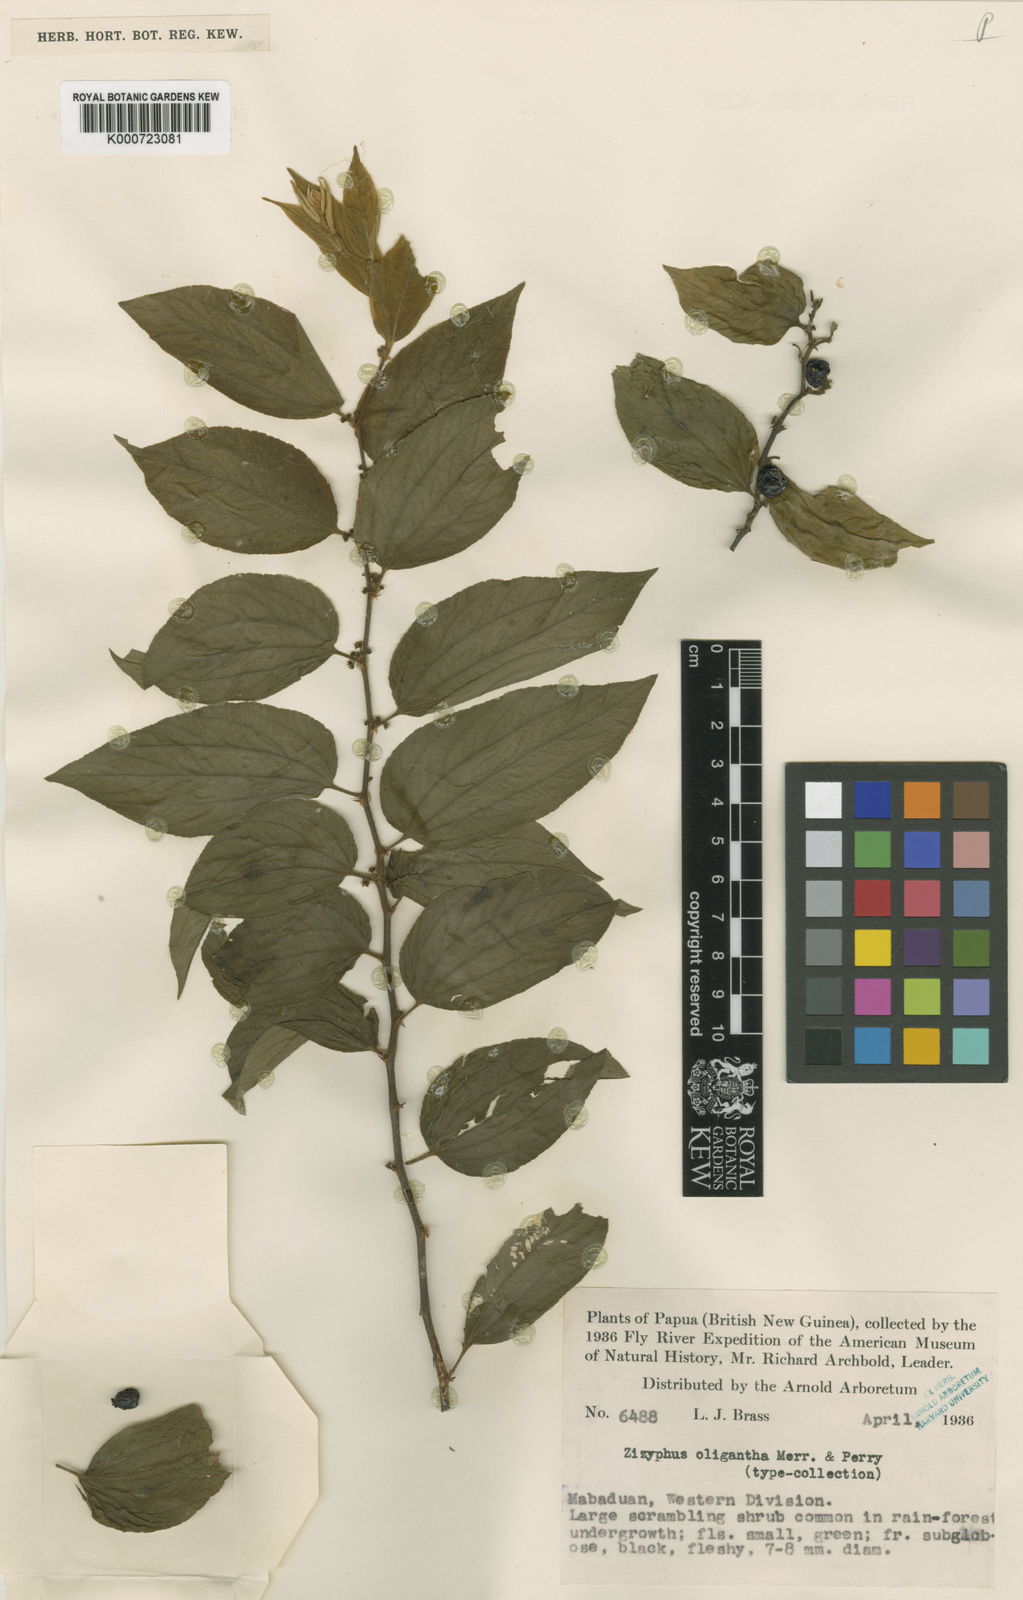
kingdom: Plantae
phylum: Tracheophyta
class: Magnoliopsida
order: Rosales
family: Rhamnaceae
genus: Ziziphus
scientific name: Ziziphus oligantha
